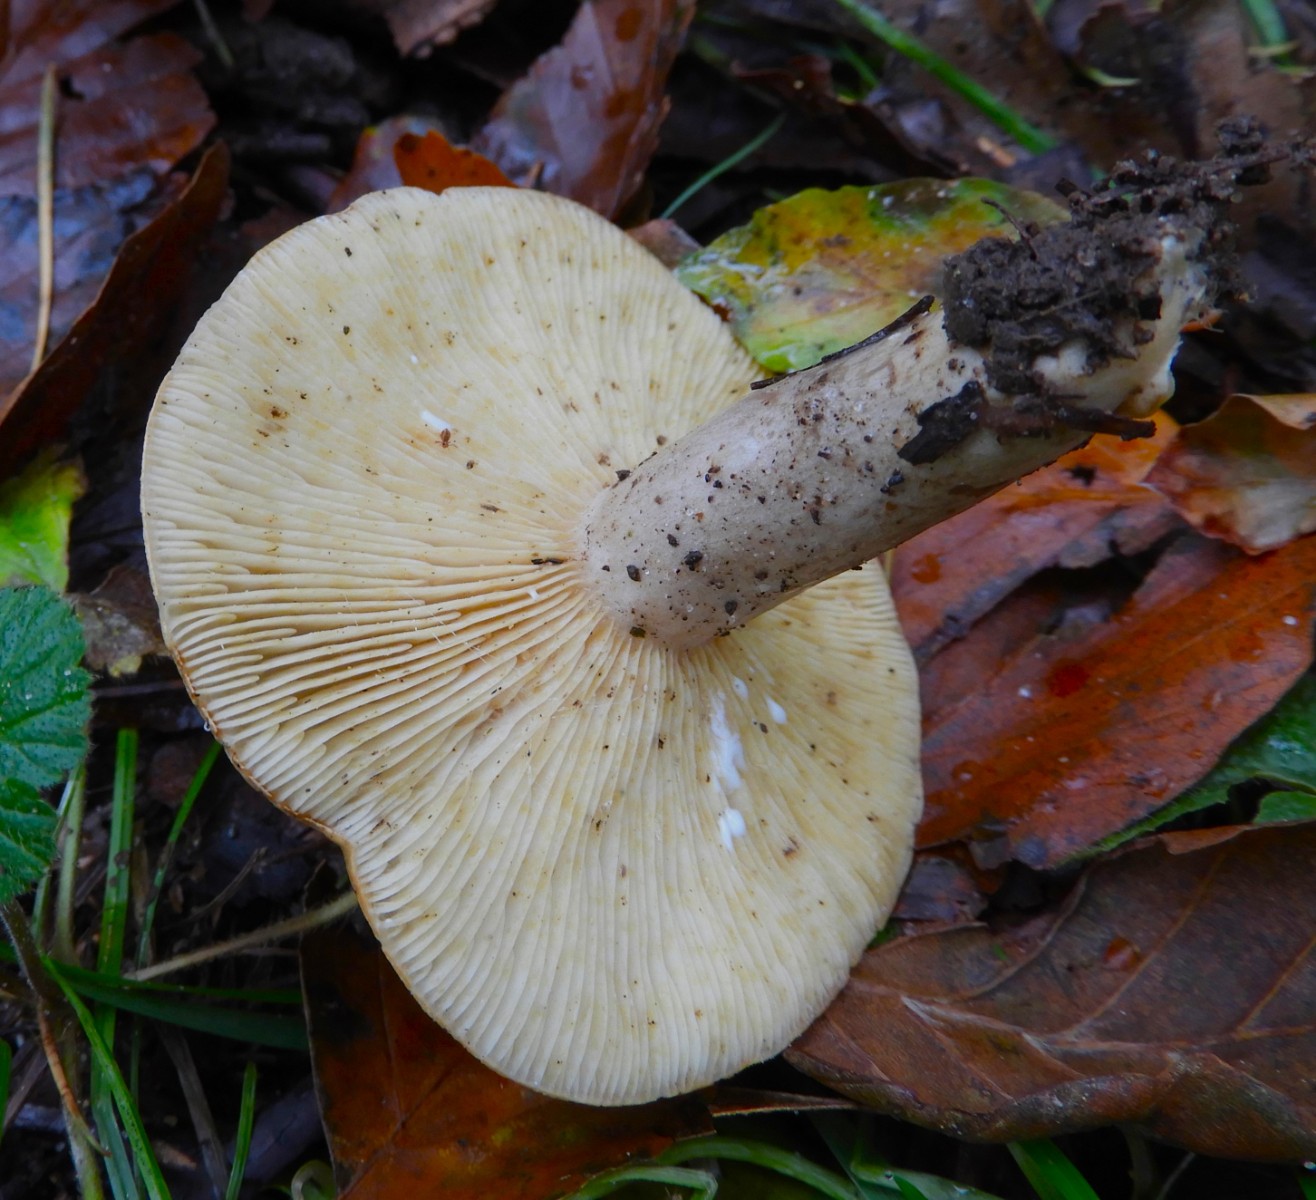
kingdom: Fungi
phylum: Basidiomycota
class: Agaricomycetes
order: Russulales
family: Russulaceae
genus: Lactarius
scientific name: Lactarius fluens
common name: lysrandet mælkehat
